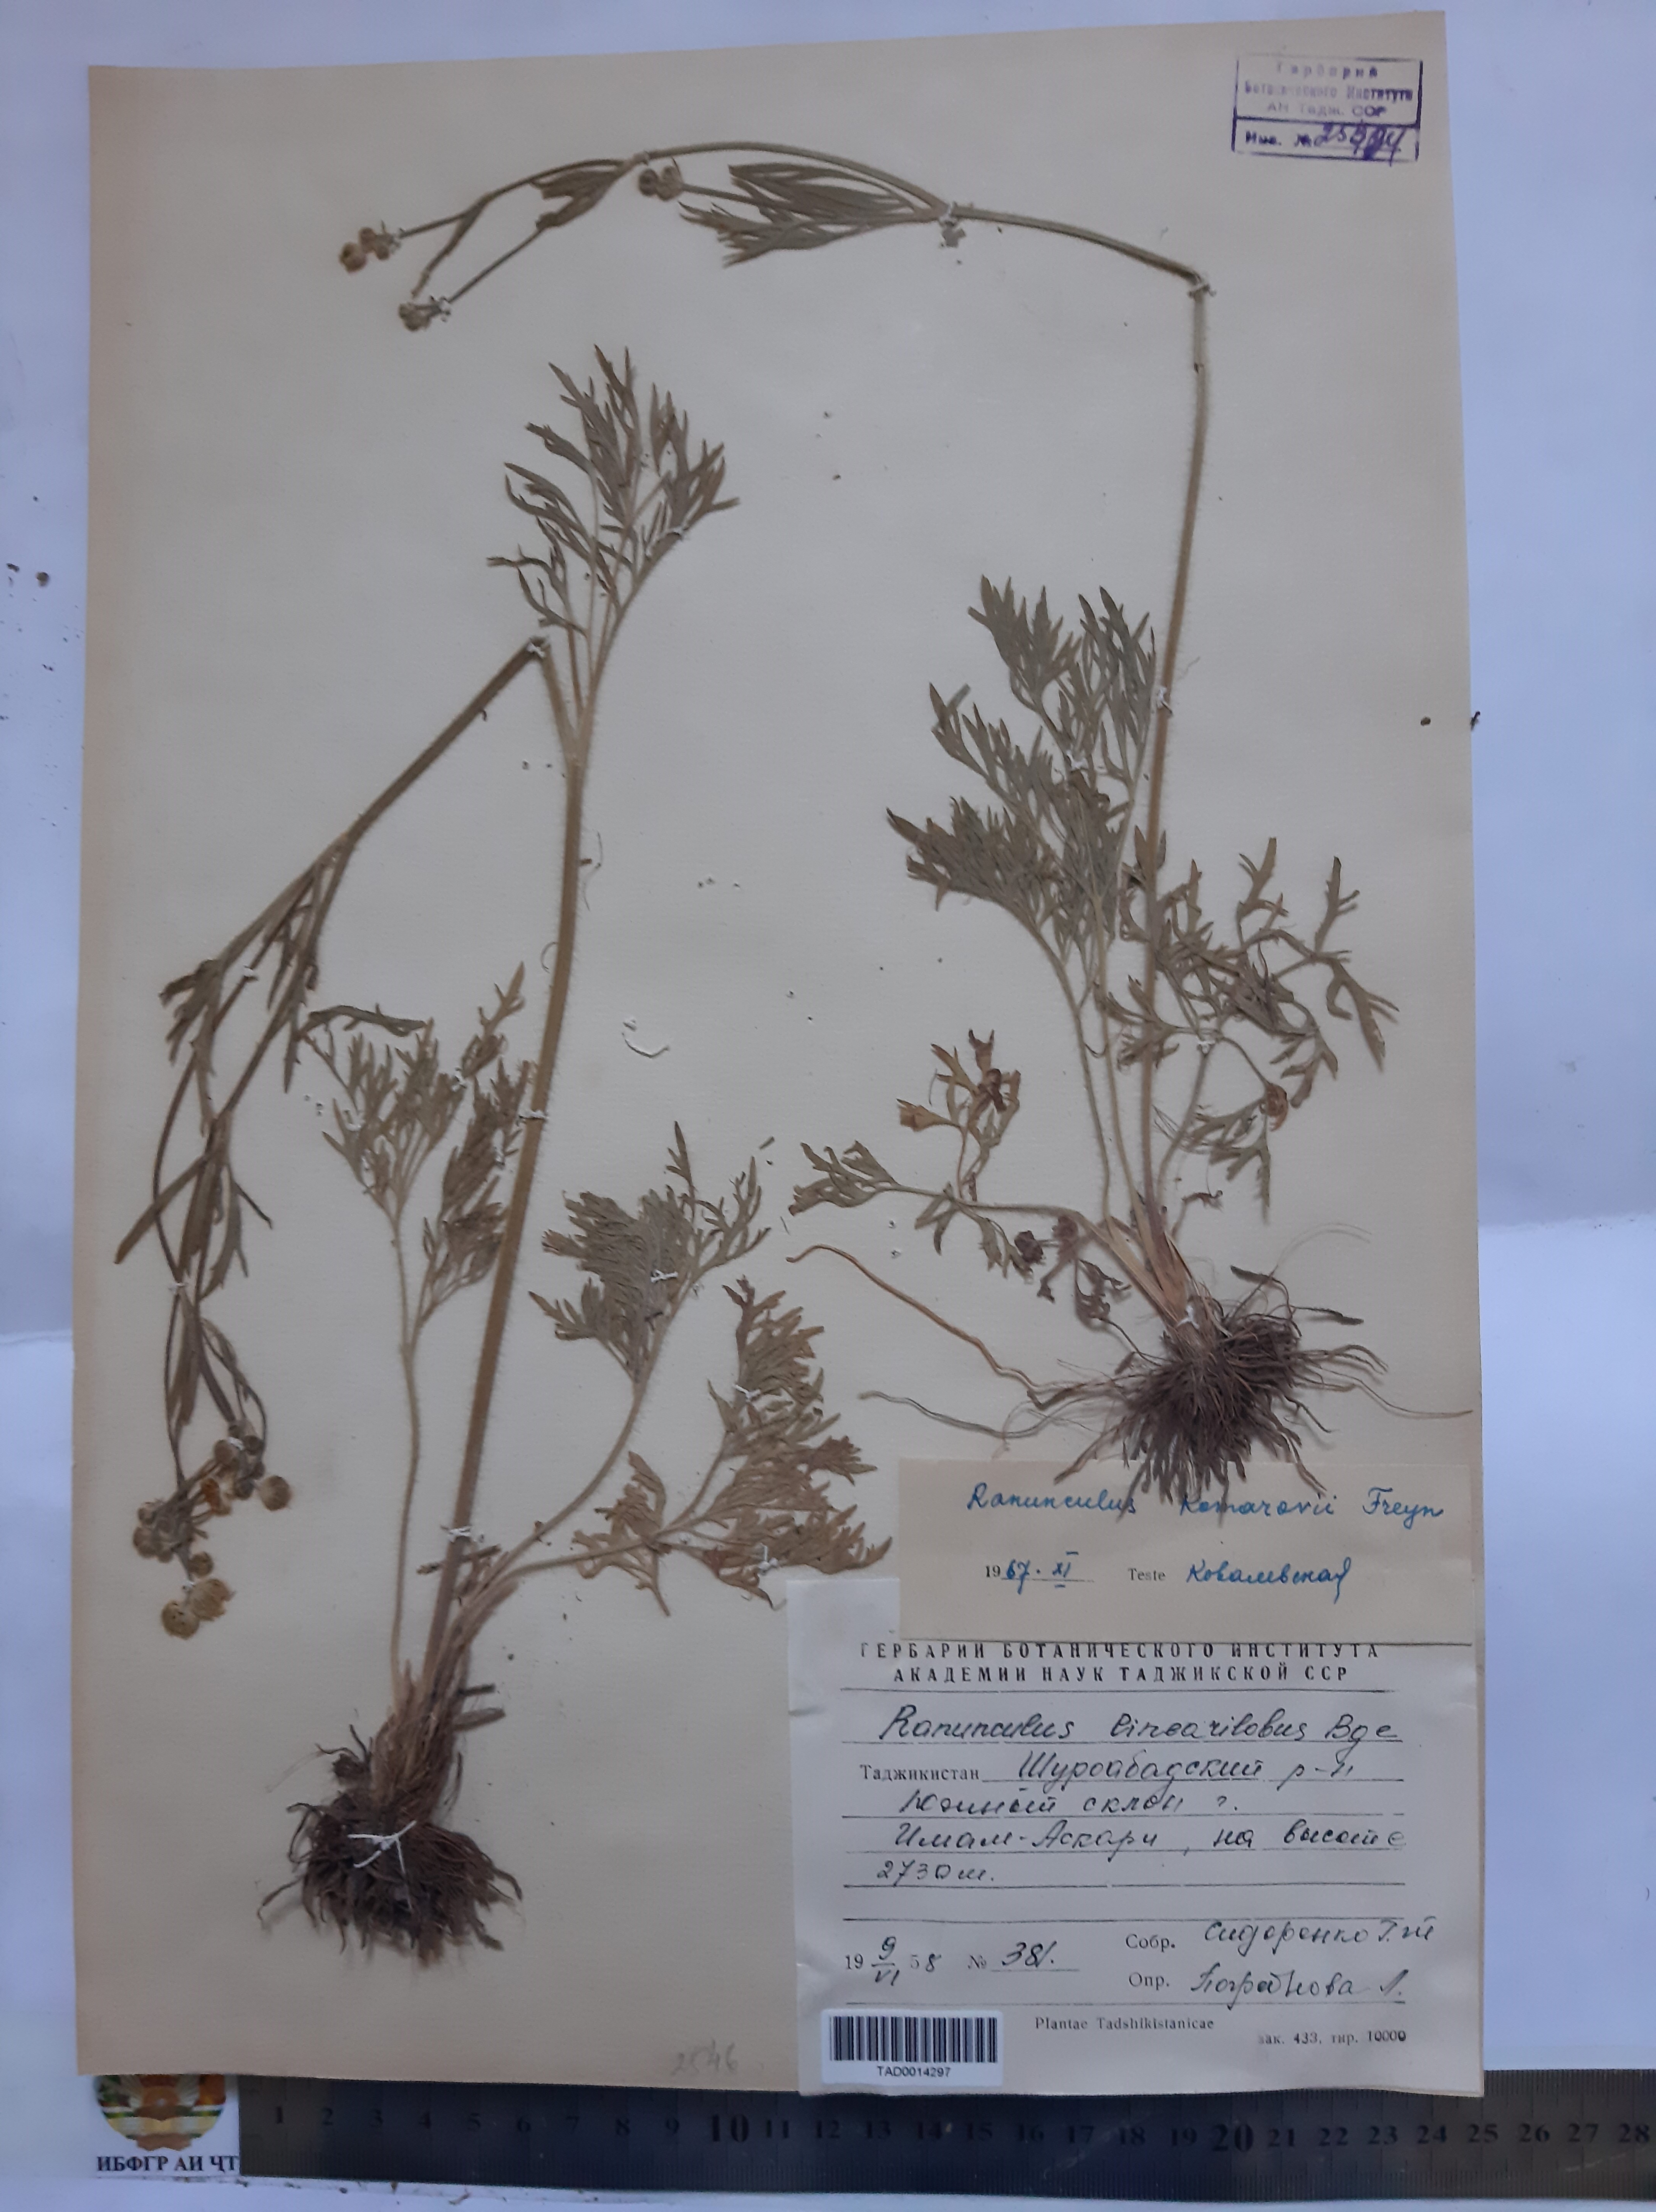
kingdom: Plantae
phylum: Tracheophyta
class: Magnoliopsida
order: Ranunculales
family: Ranunculaceae
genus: Ranunculus
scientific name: Ranunculus komarovii
